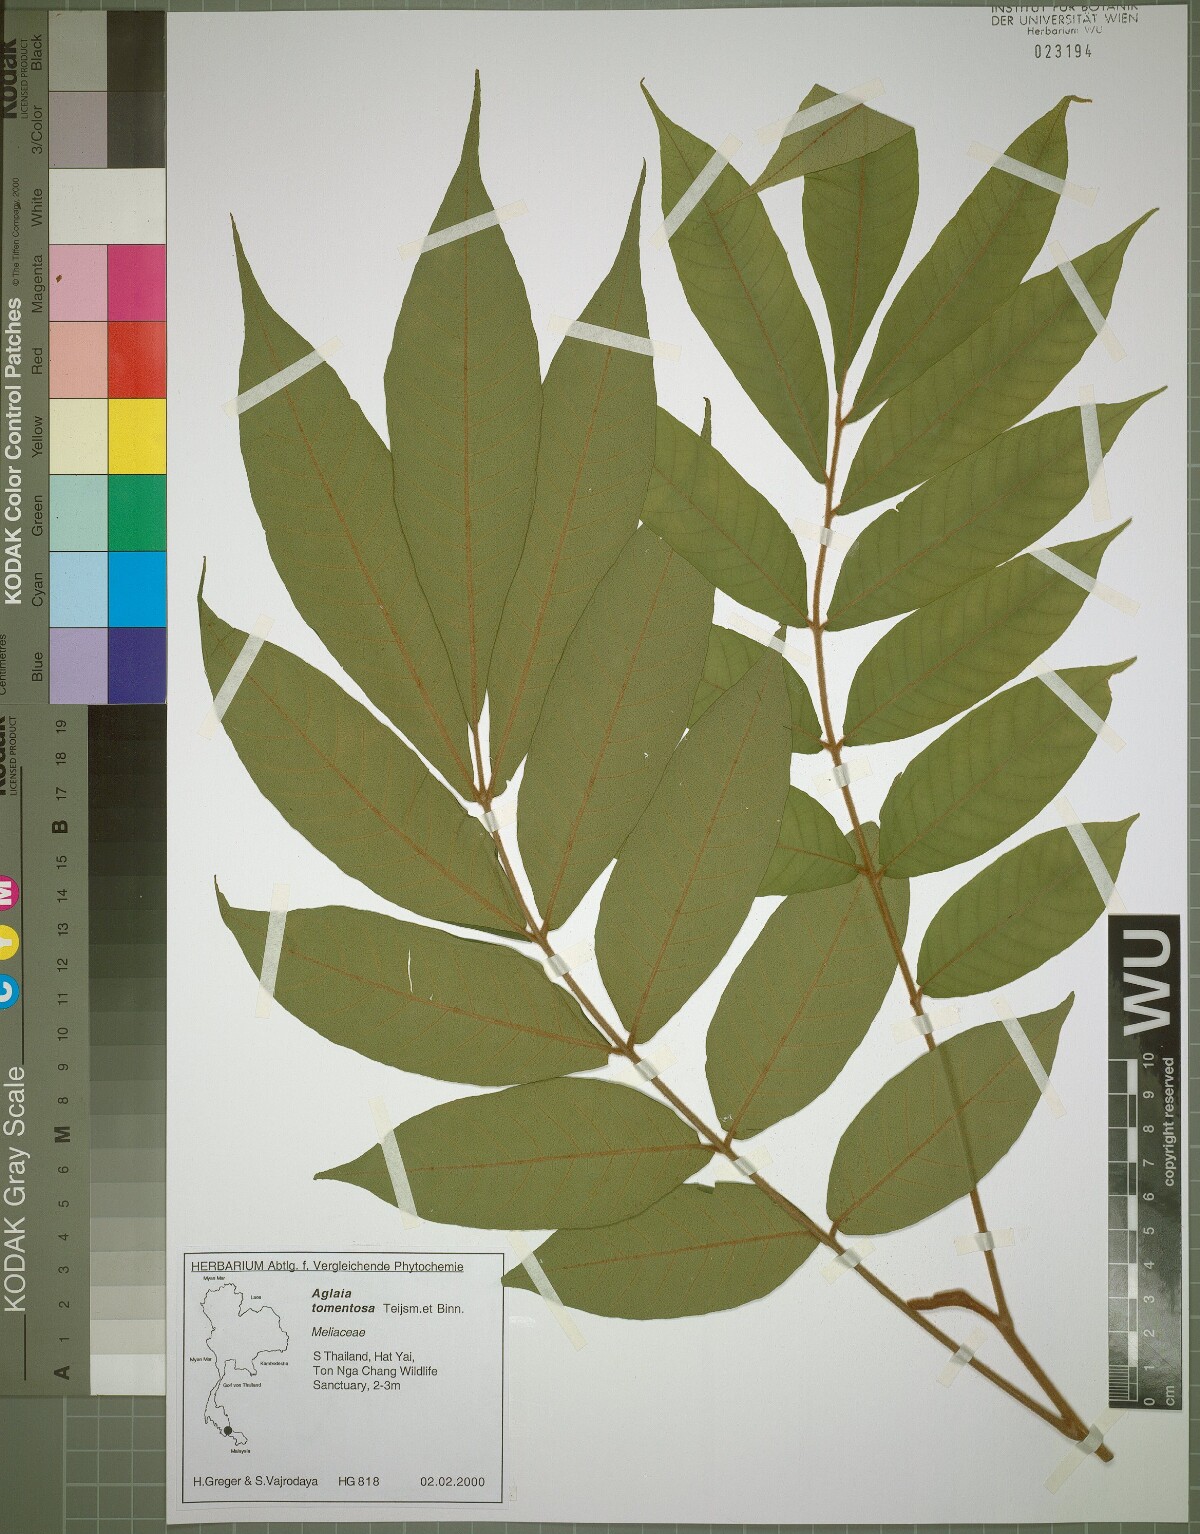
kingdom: Plantae
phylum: Tracheophyta
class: Magnoliopsida
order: Sapindales
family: Meliaceae
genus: Aglaia
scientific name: Aglaia tomentosa
